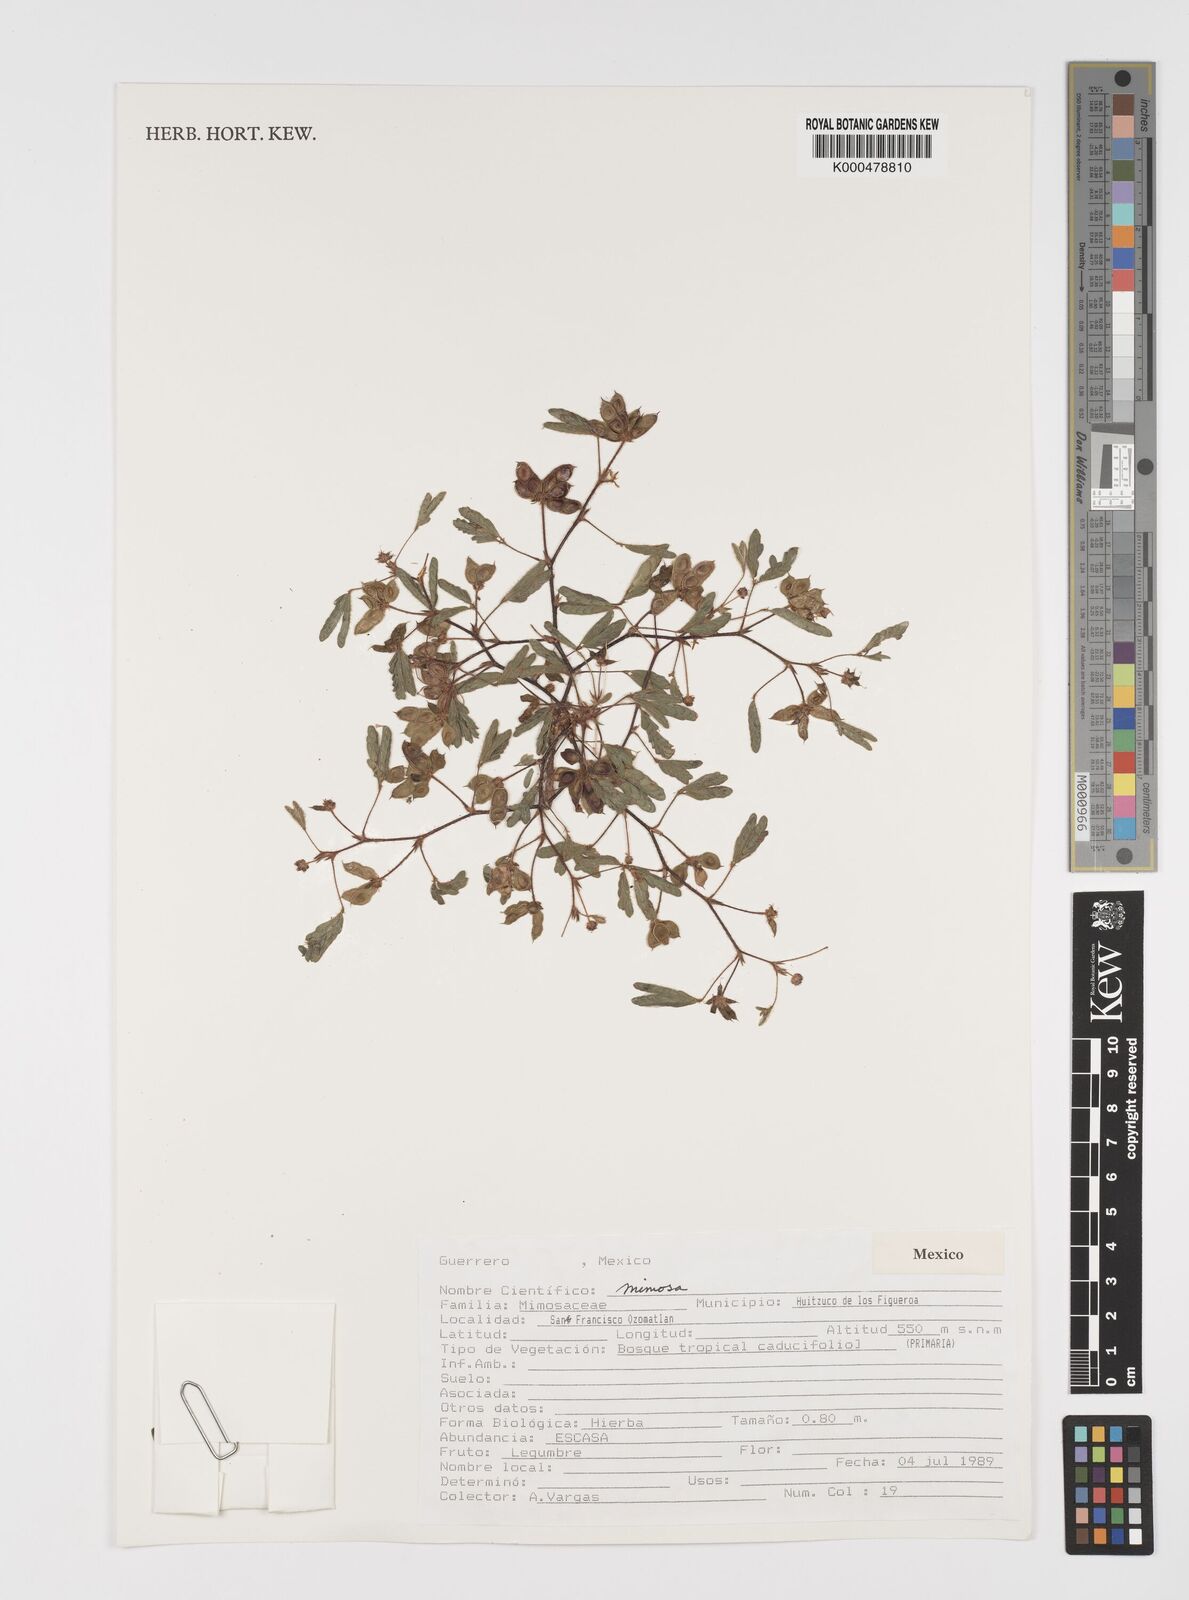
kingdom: Plantae
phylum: Tracheophyta
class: Magnoliopsida
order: Fabales
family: Fabaceae
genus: Mimosa
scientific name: Mimosa
